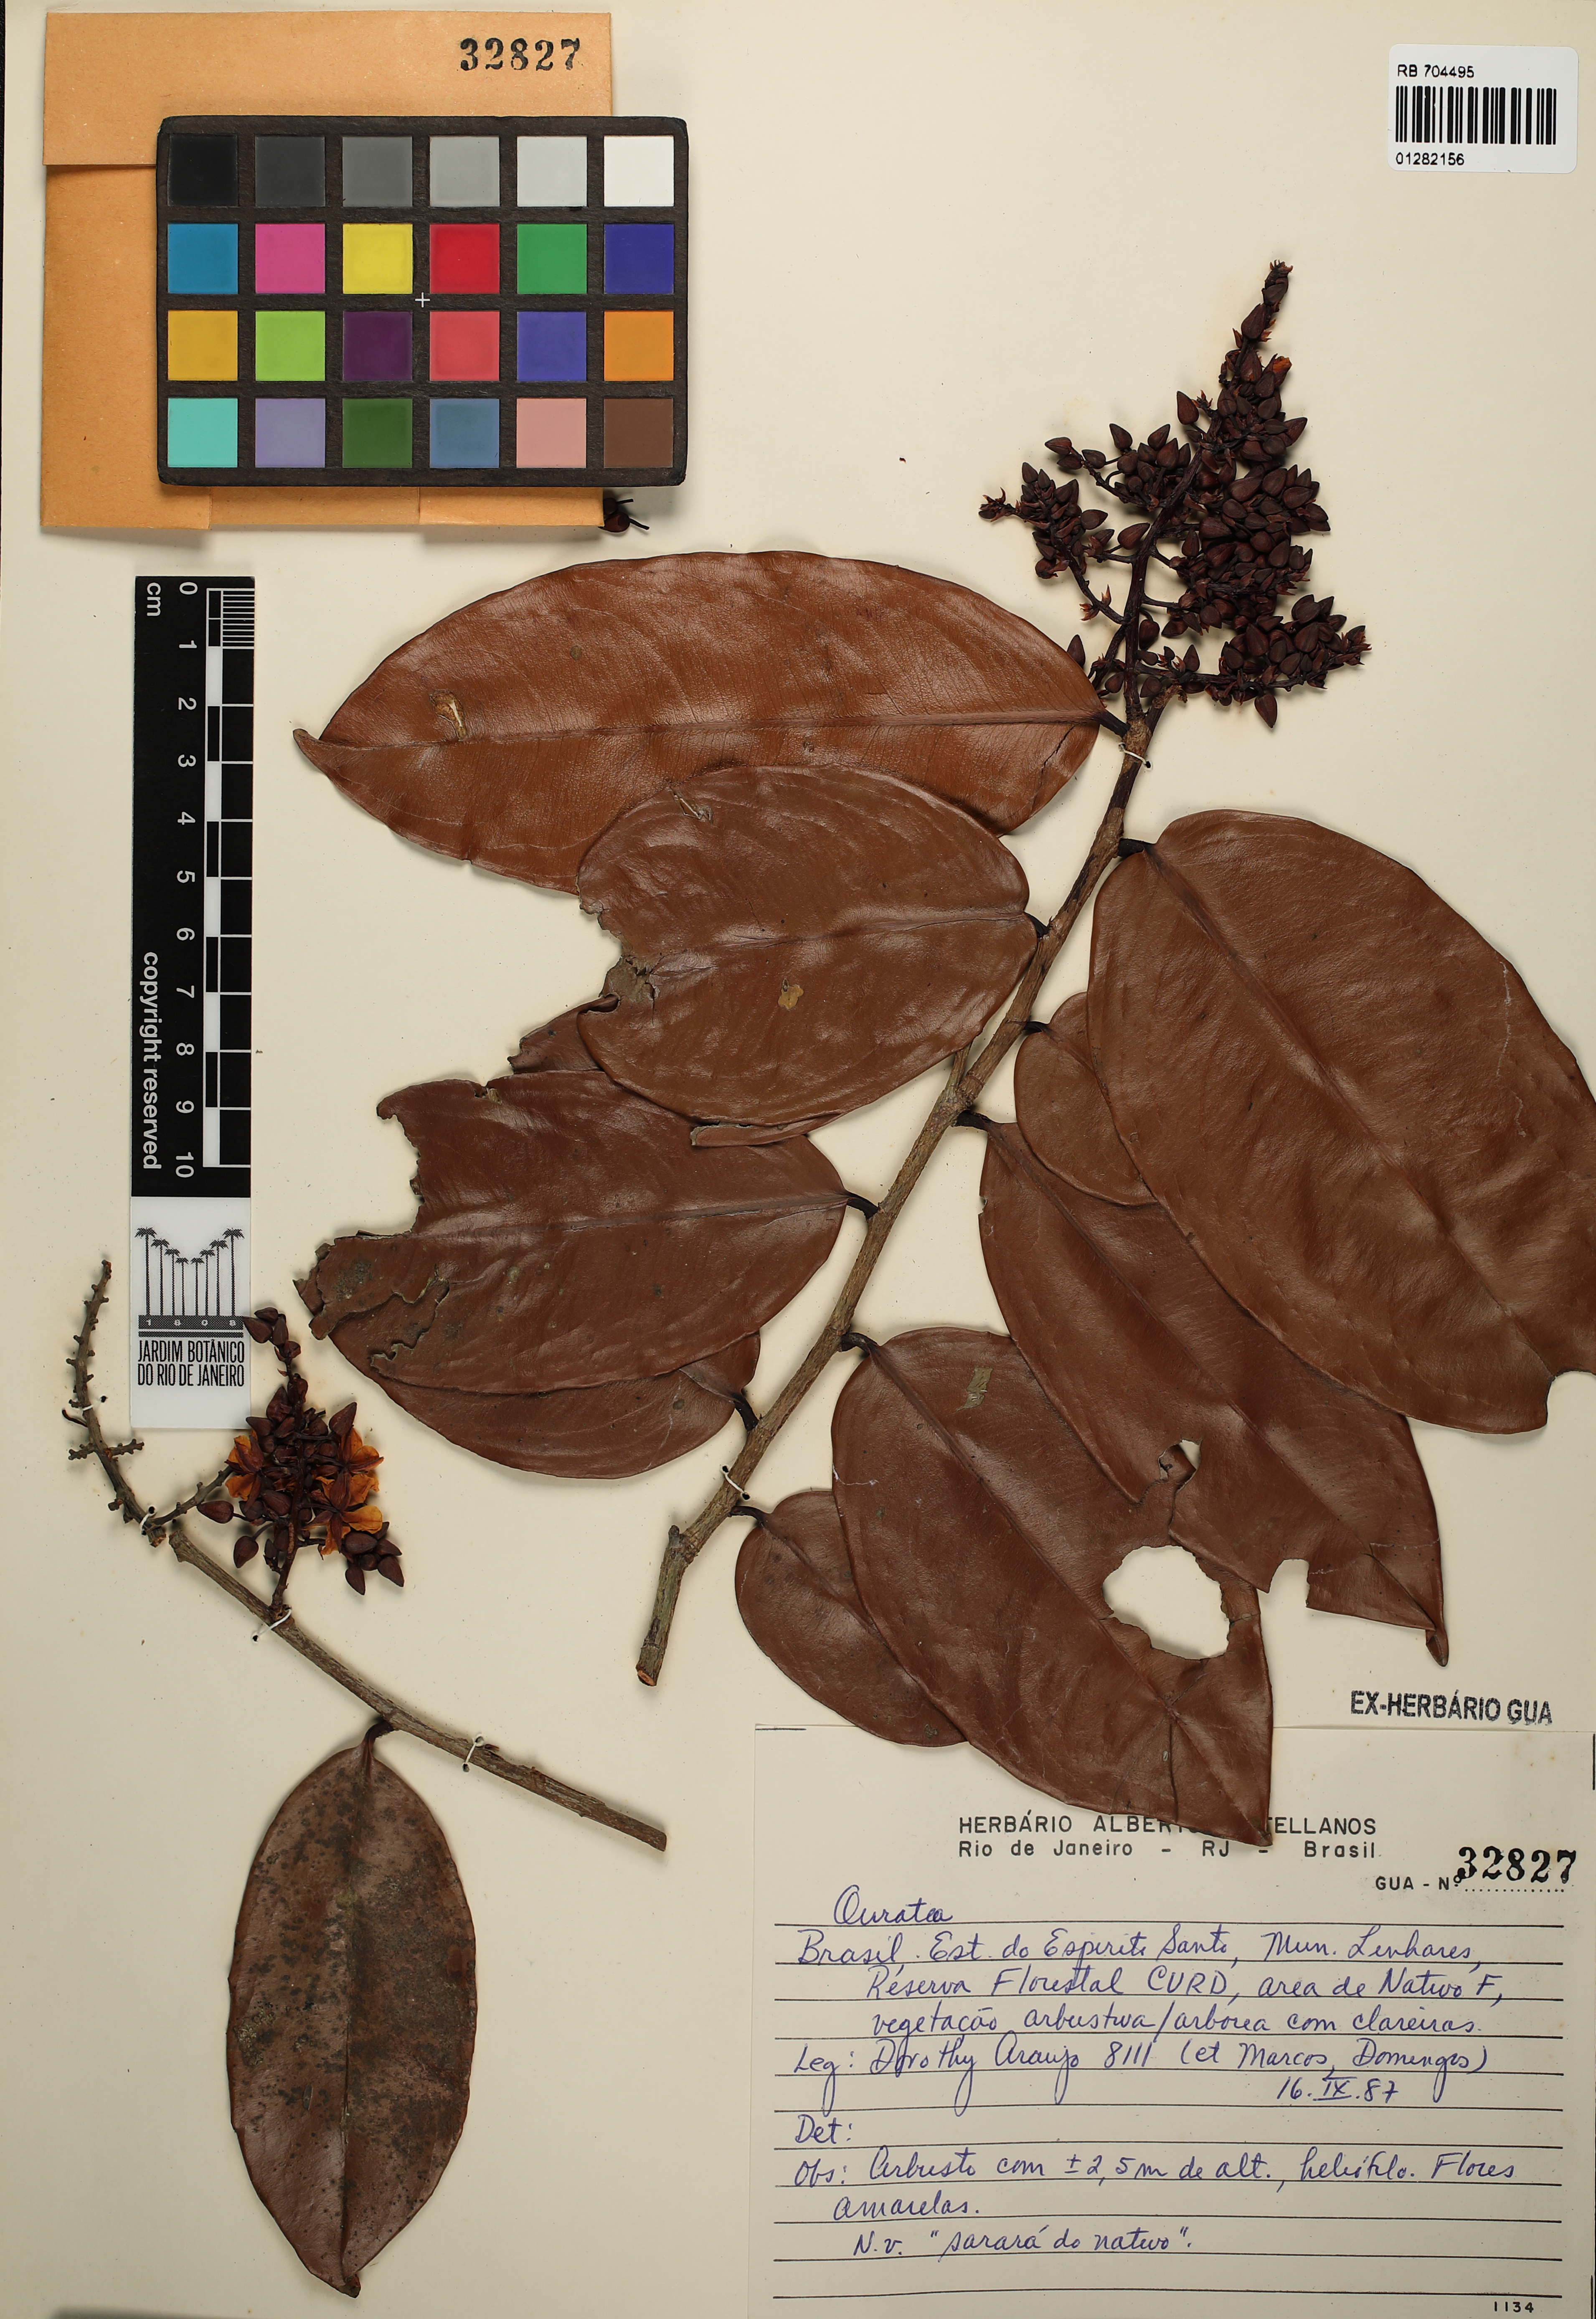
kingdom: Plantae
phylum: Tracheophyta
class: Magnoliopsida
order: Malpighiales
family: Ochnaceae
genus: Ouratea
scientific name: Ouratea
